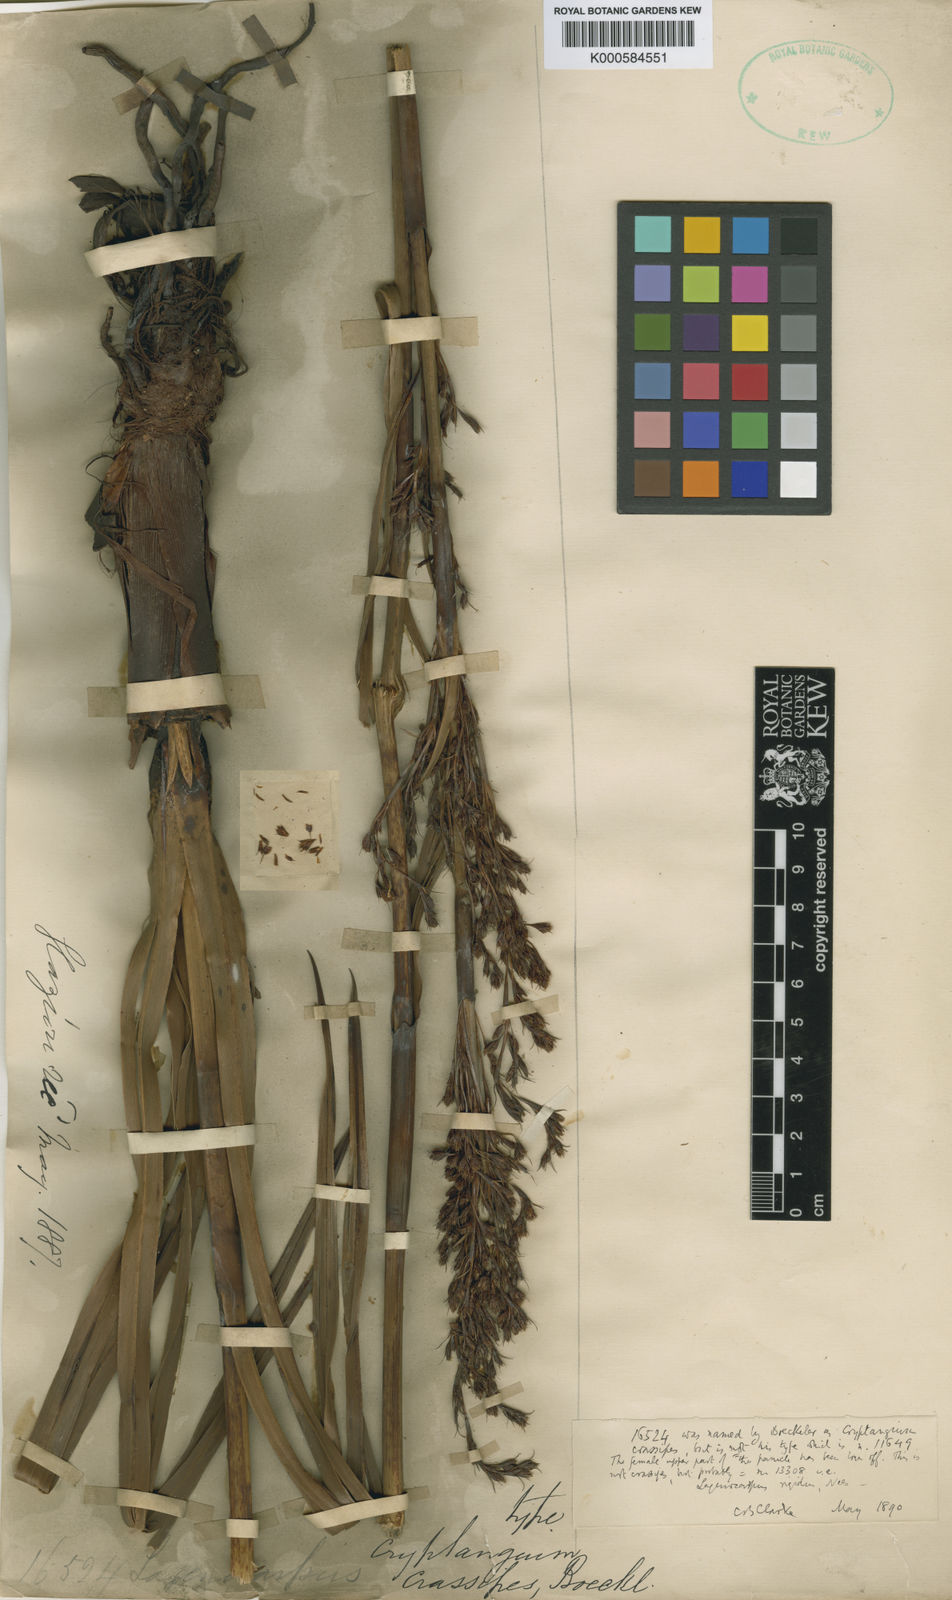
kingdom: Plantae
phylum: Tracheophyta
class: Liliopsida
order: Poales
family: Cyperaceae
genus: Lagenocarpus
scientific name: Lagenocarpus rigidus
